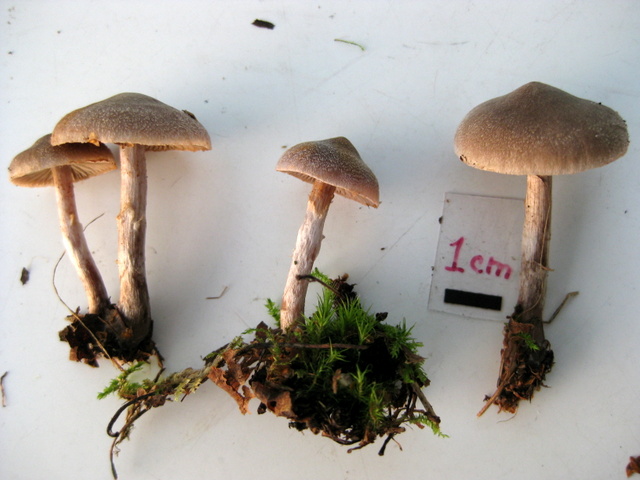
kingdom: Fungi
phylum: Basidiomycota
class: Agaricomycetes
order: Agaricales
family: Cortinariaceae
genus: Cortinarius
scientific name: Cortinarius hemitrichus
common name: hvidfnugget slørhat
